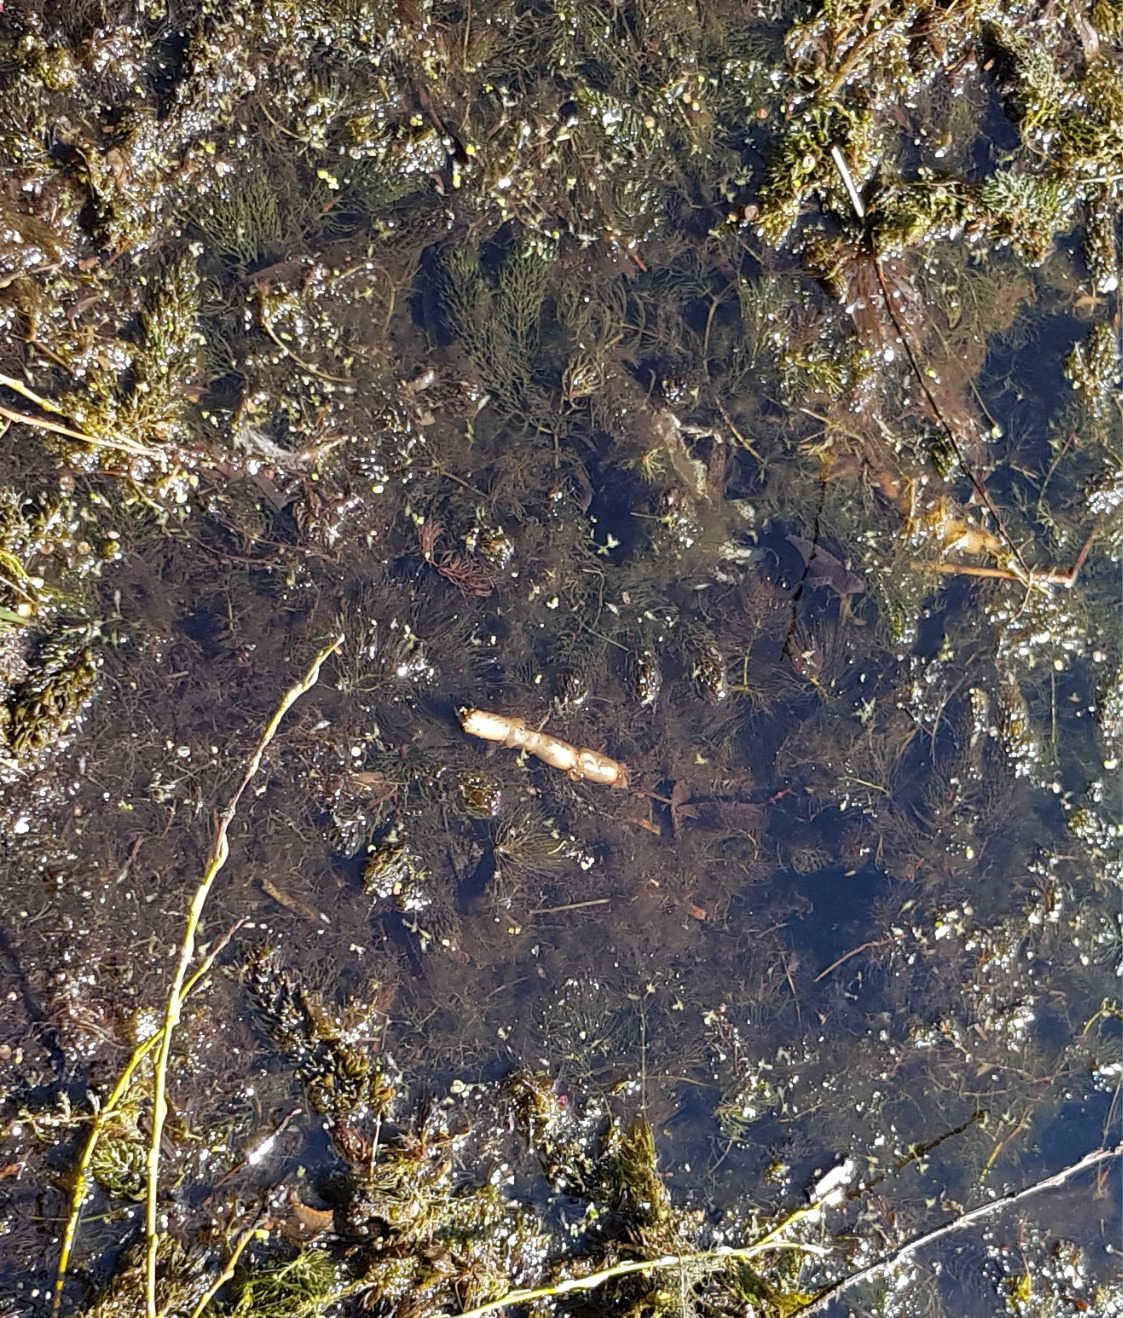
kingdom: Plantae
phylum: Tracheophyta
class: Magnoliopsida
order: Ceratophyllales
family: Ceratophyllaceae
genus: Ceratophyllum
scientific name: Ceratophyllum demersum
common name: Tornfrøet hornblad
